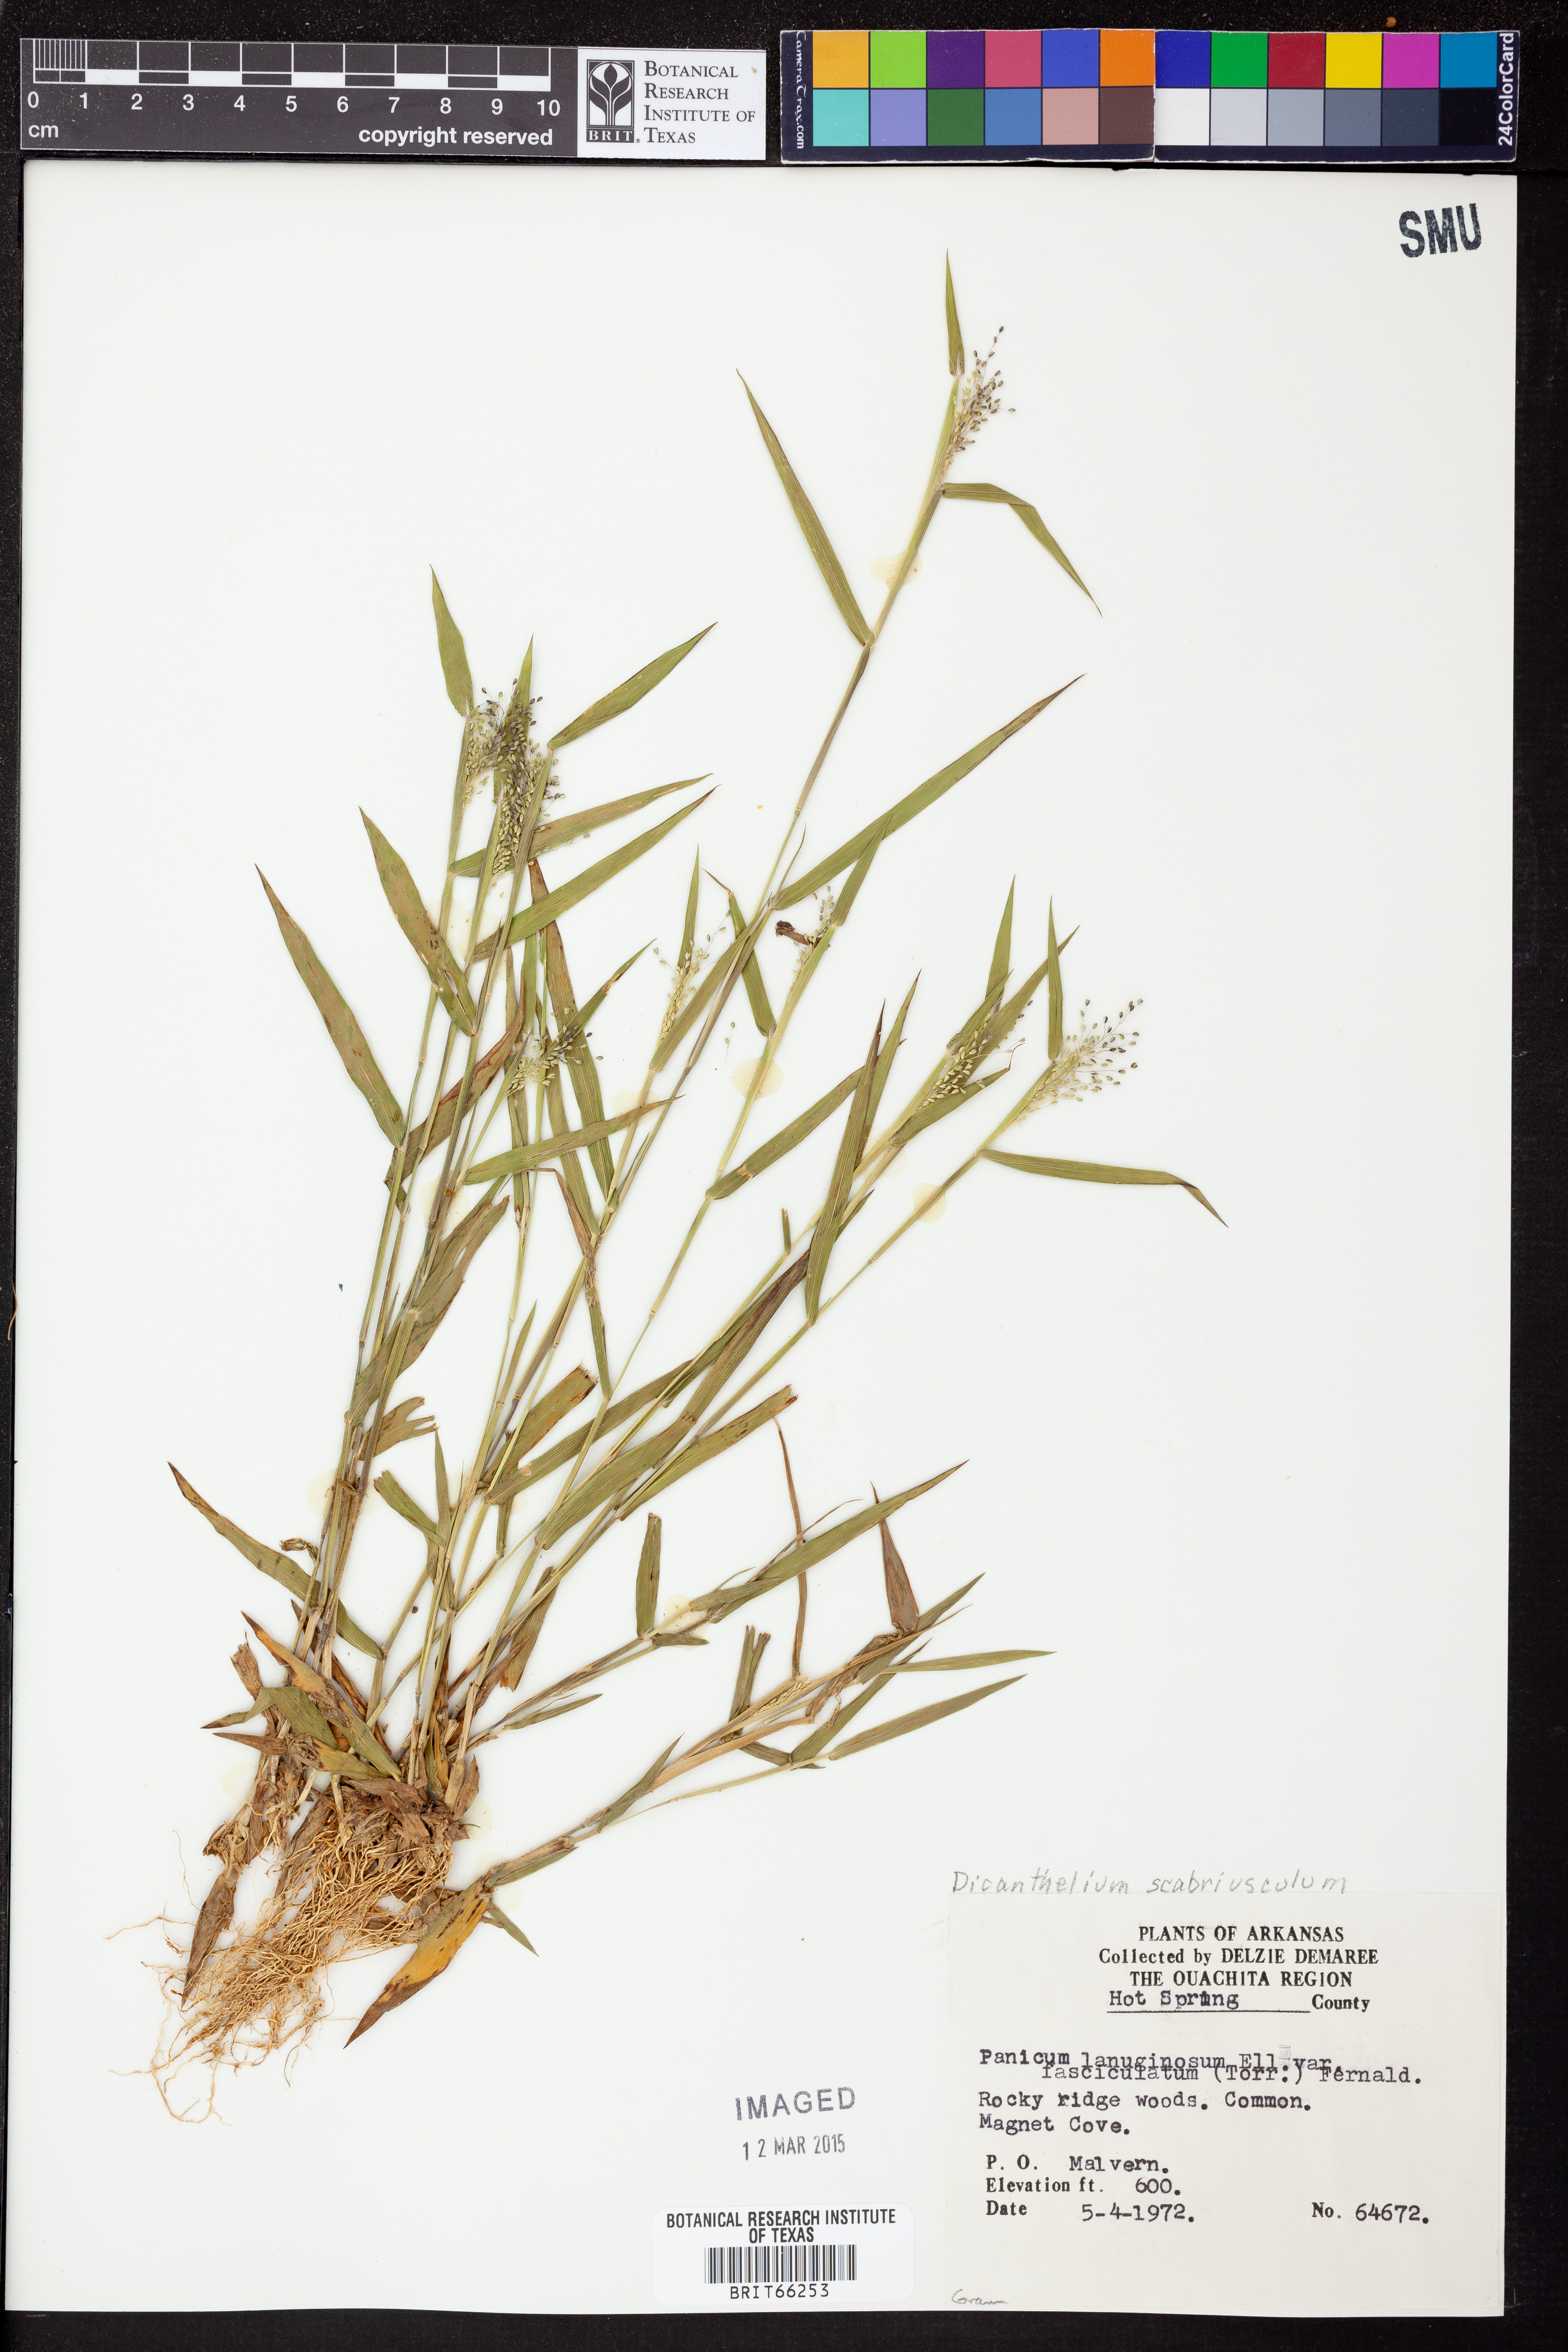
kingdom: Plantae
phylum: Tracheophyta
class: Liliopsida
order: Poales
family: Poaceae
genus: Dichanthelium
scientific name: Dichanthelium lanuginosum
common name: Woolly panicgrass
